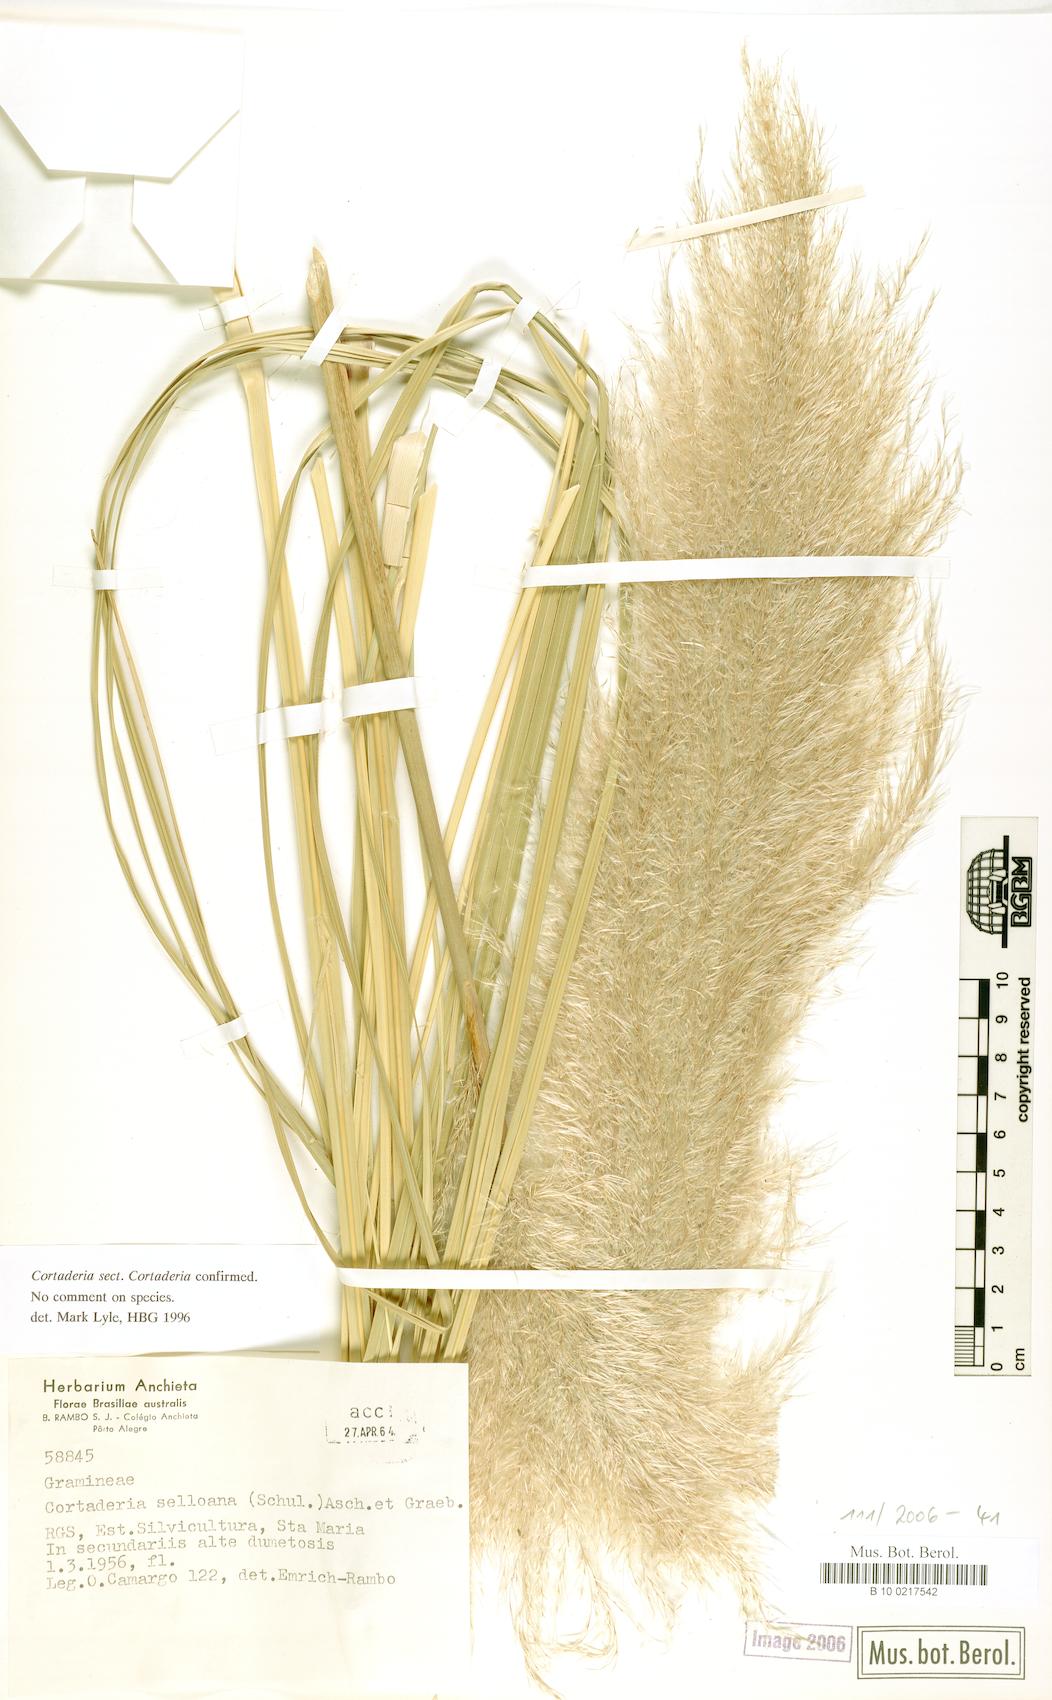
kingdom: Plantae
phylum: Tracheophyta
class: Liliopsida
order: Poales
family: Poaceae
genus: Cortaderia
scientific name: Cortaderia selloana
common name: Uruguayan pampas grass
